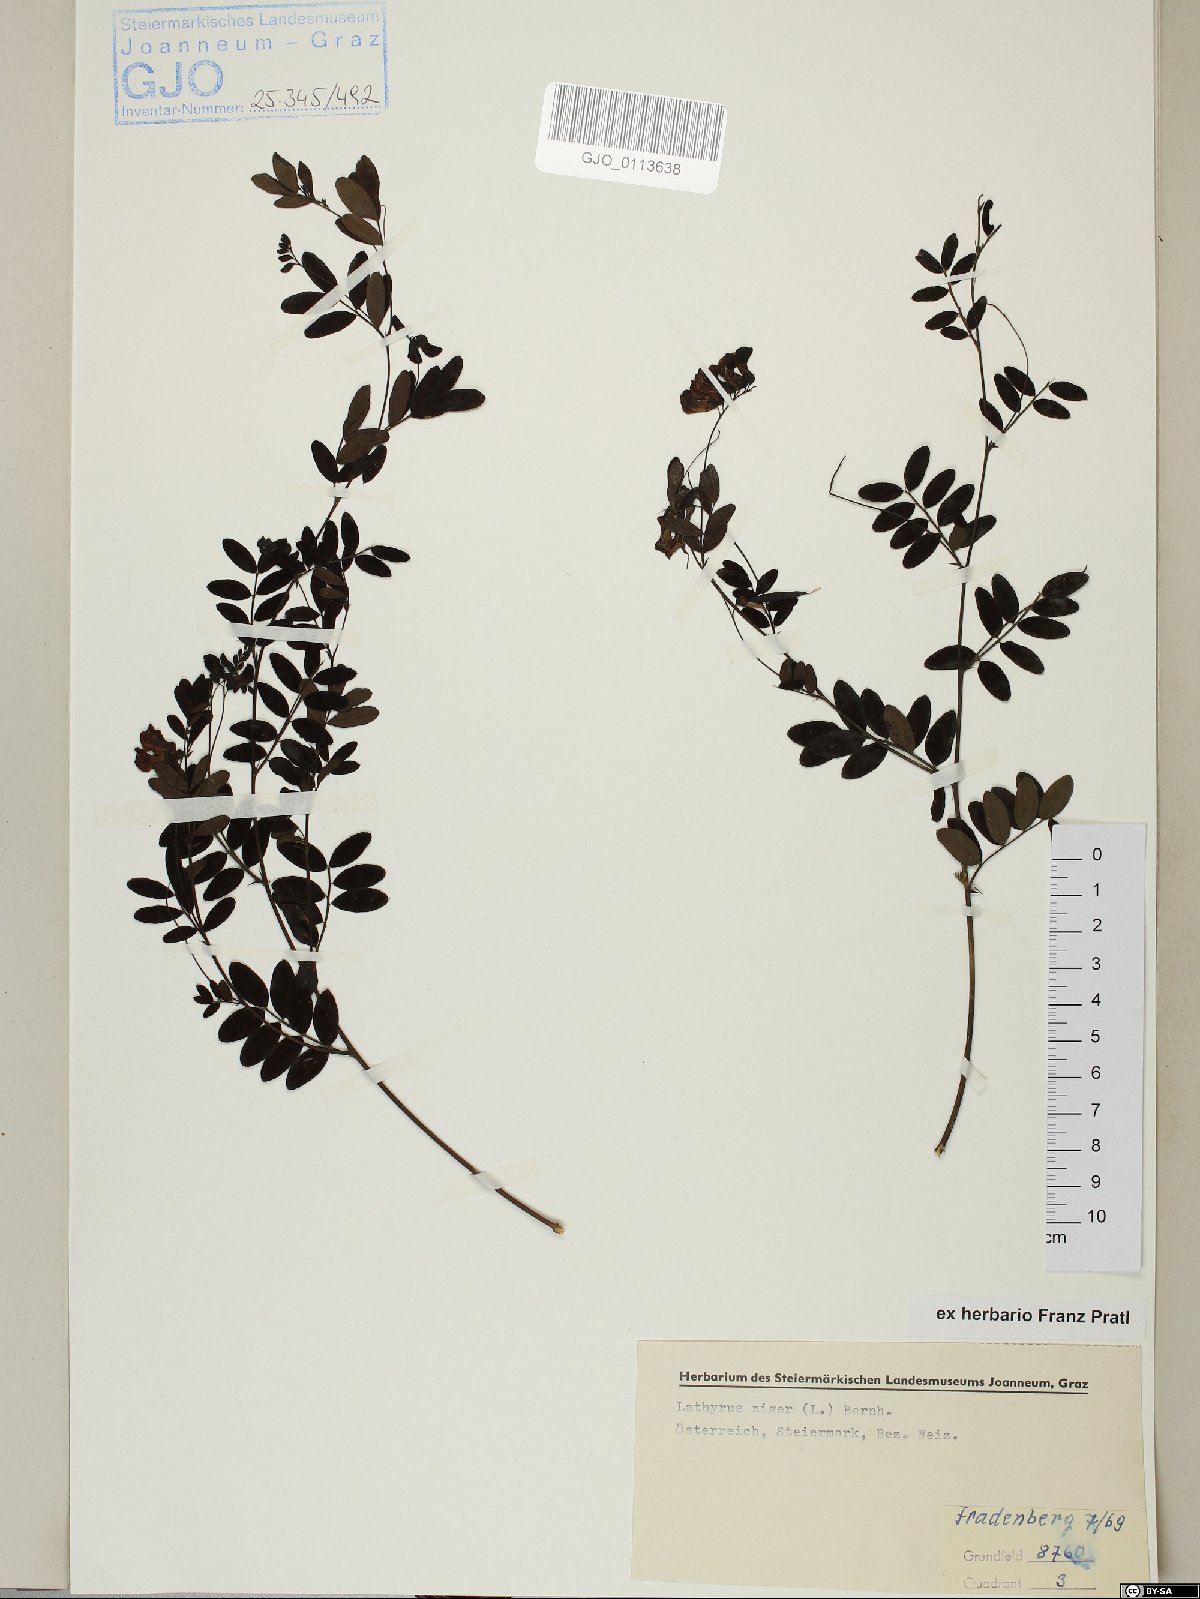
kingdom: Plantae
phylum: Tracheophyta
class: Magnoliopsida
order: Fabales
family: Fabaceae
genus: Lathyrus
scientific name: Lathyrus niger
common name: Black pea
